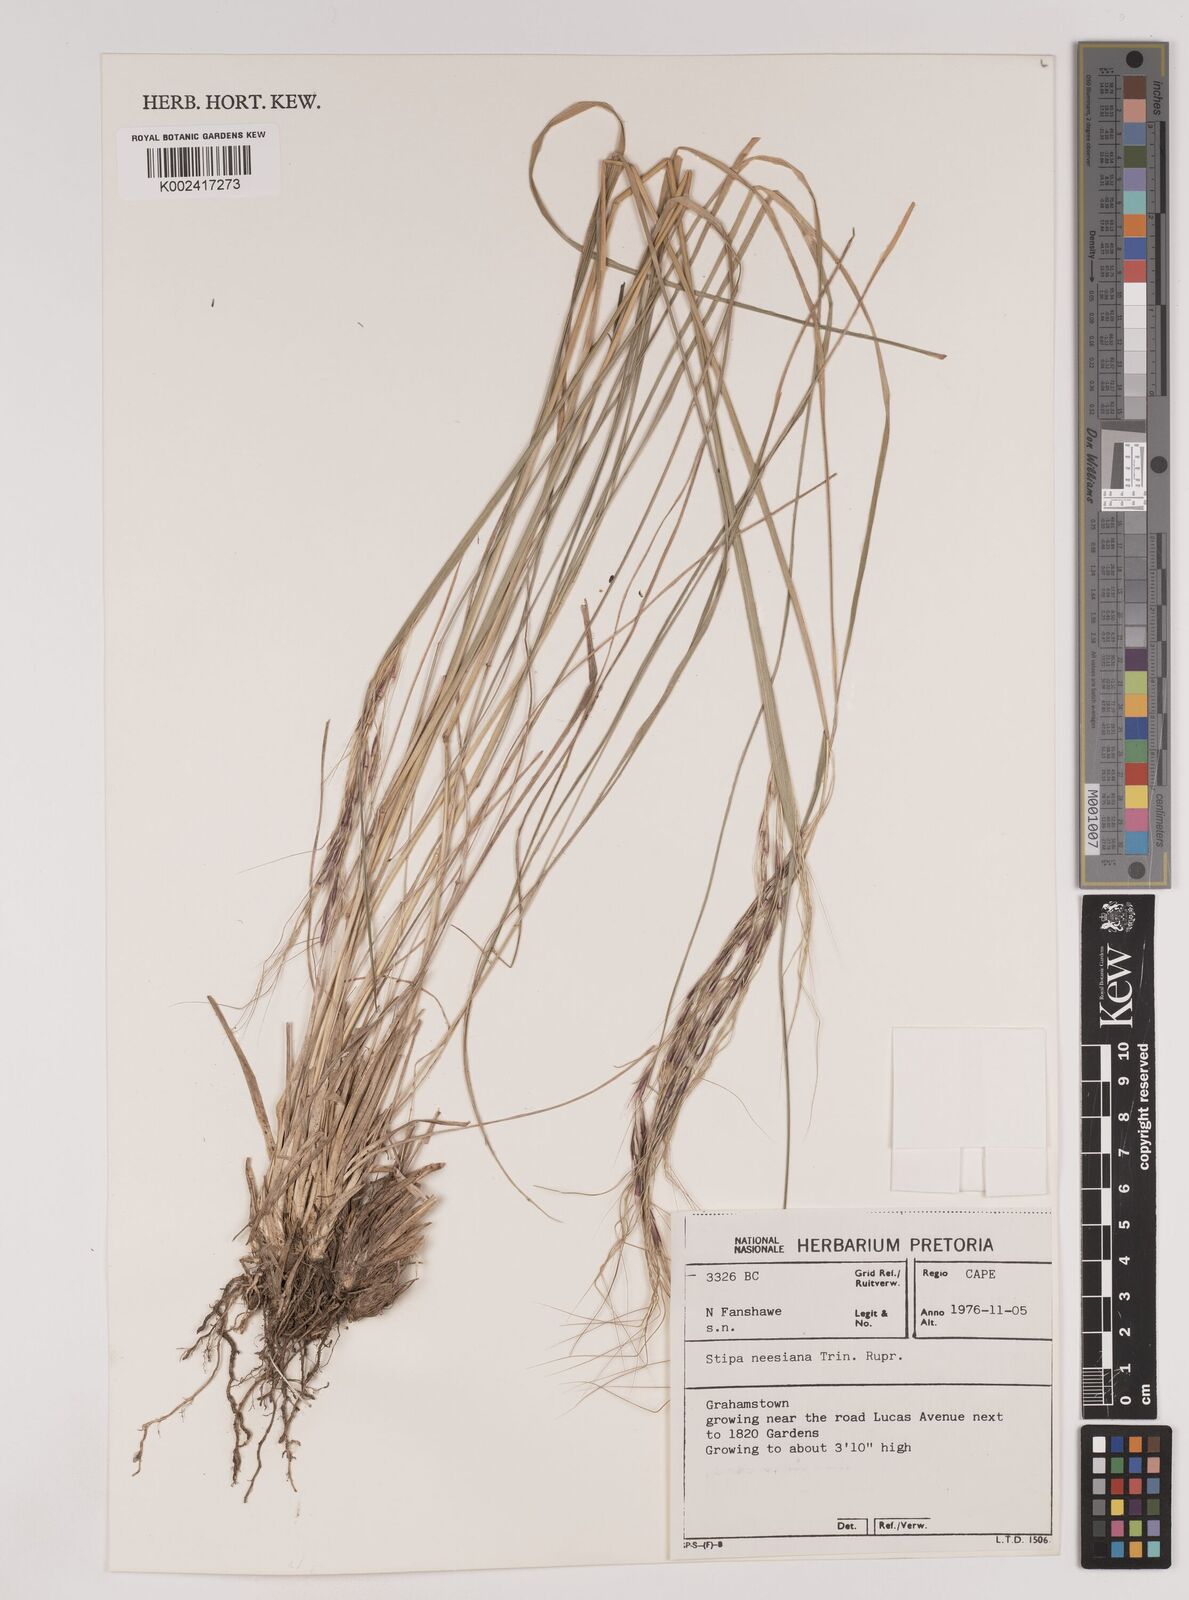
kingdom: Plantae
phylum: Tracheophyta
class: Liliopsida
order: Poales
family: Poaceae
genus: Nassella
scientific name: Nassella neesiana
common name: American needle-grass
